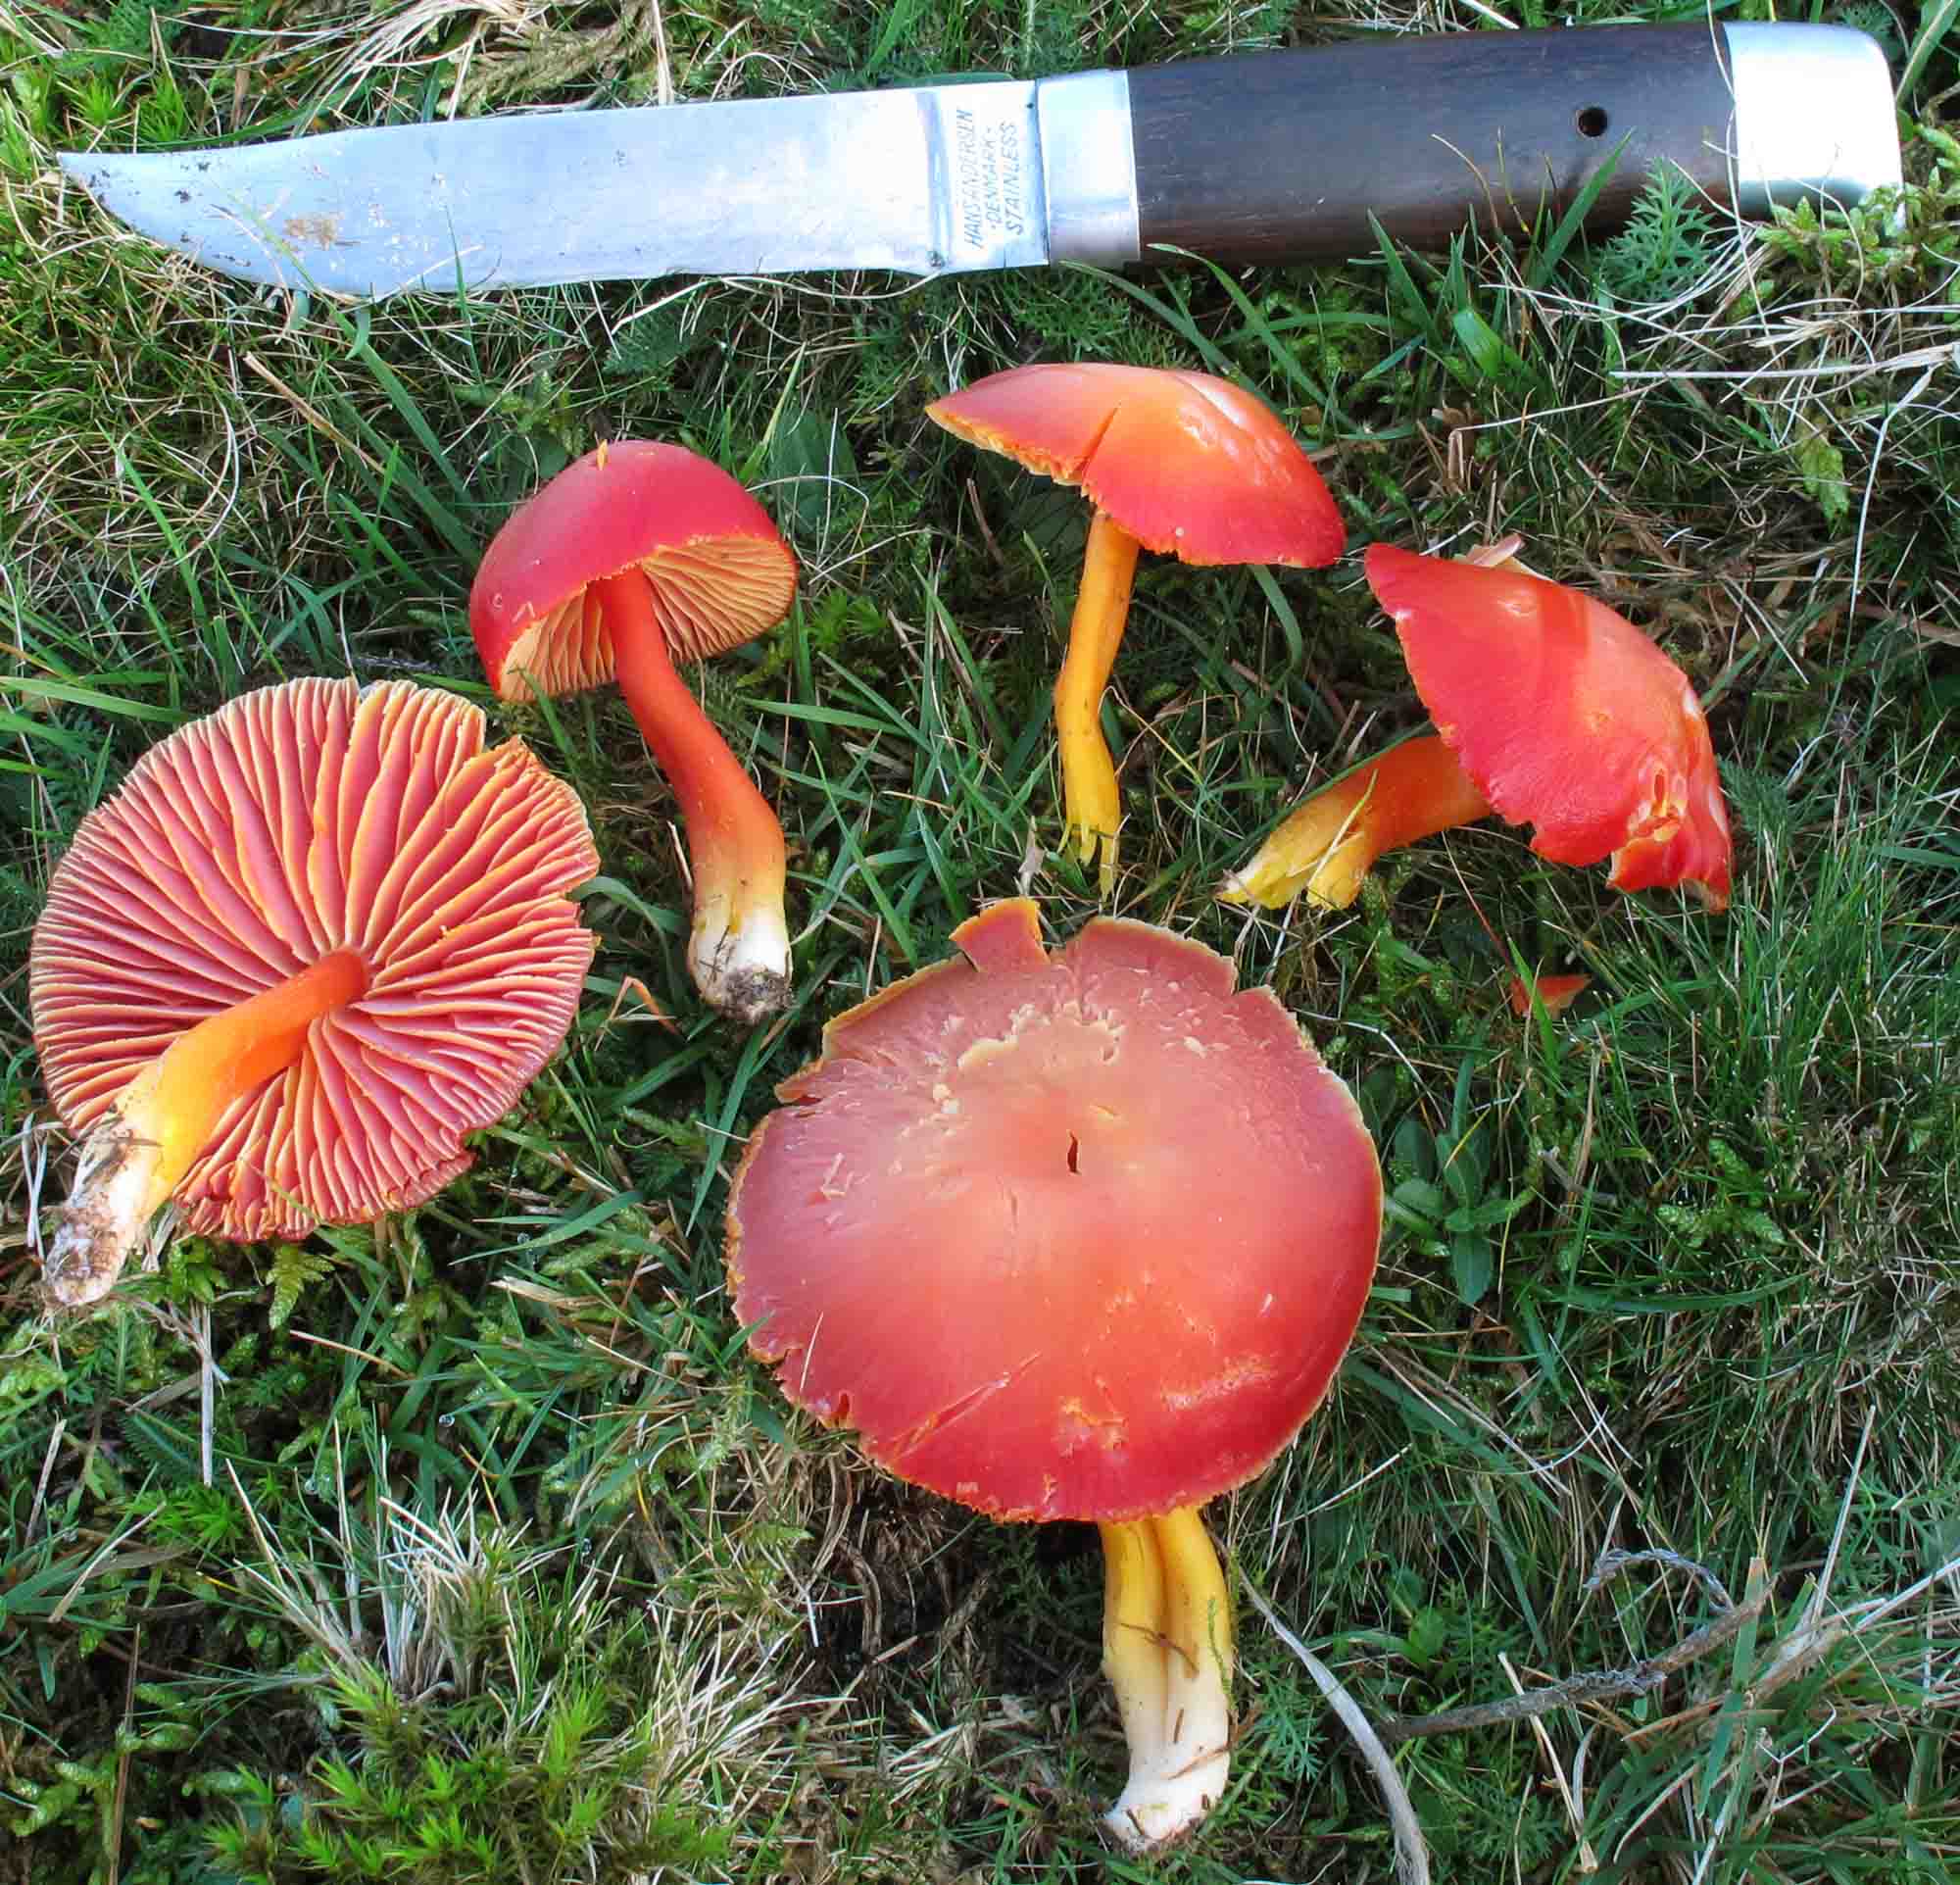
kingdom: Fungi
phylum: Basidiomycota
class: Agaricomycetes
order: Agaricales
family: Hygrophoraceae
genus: Hygrocybe
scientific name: Hygrocybe coccinea
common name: cinnober-vokshat
